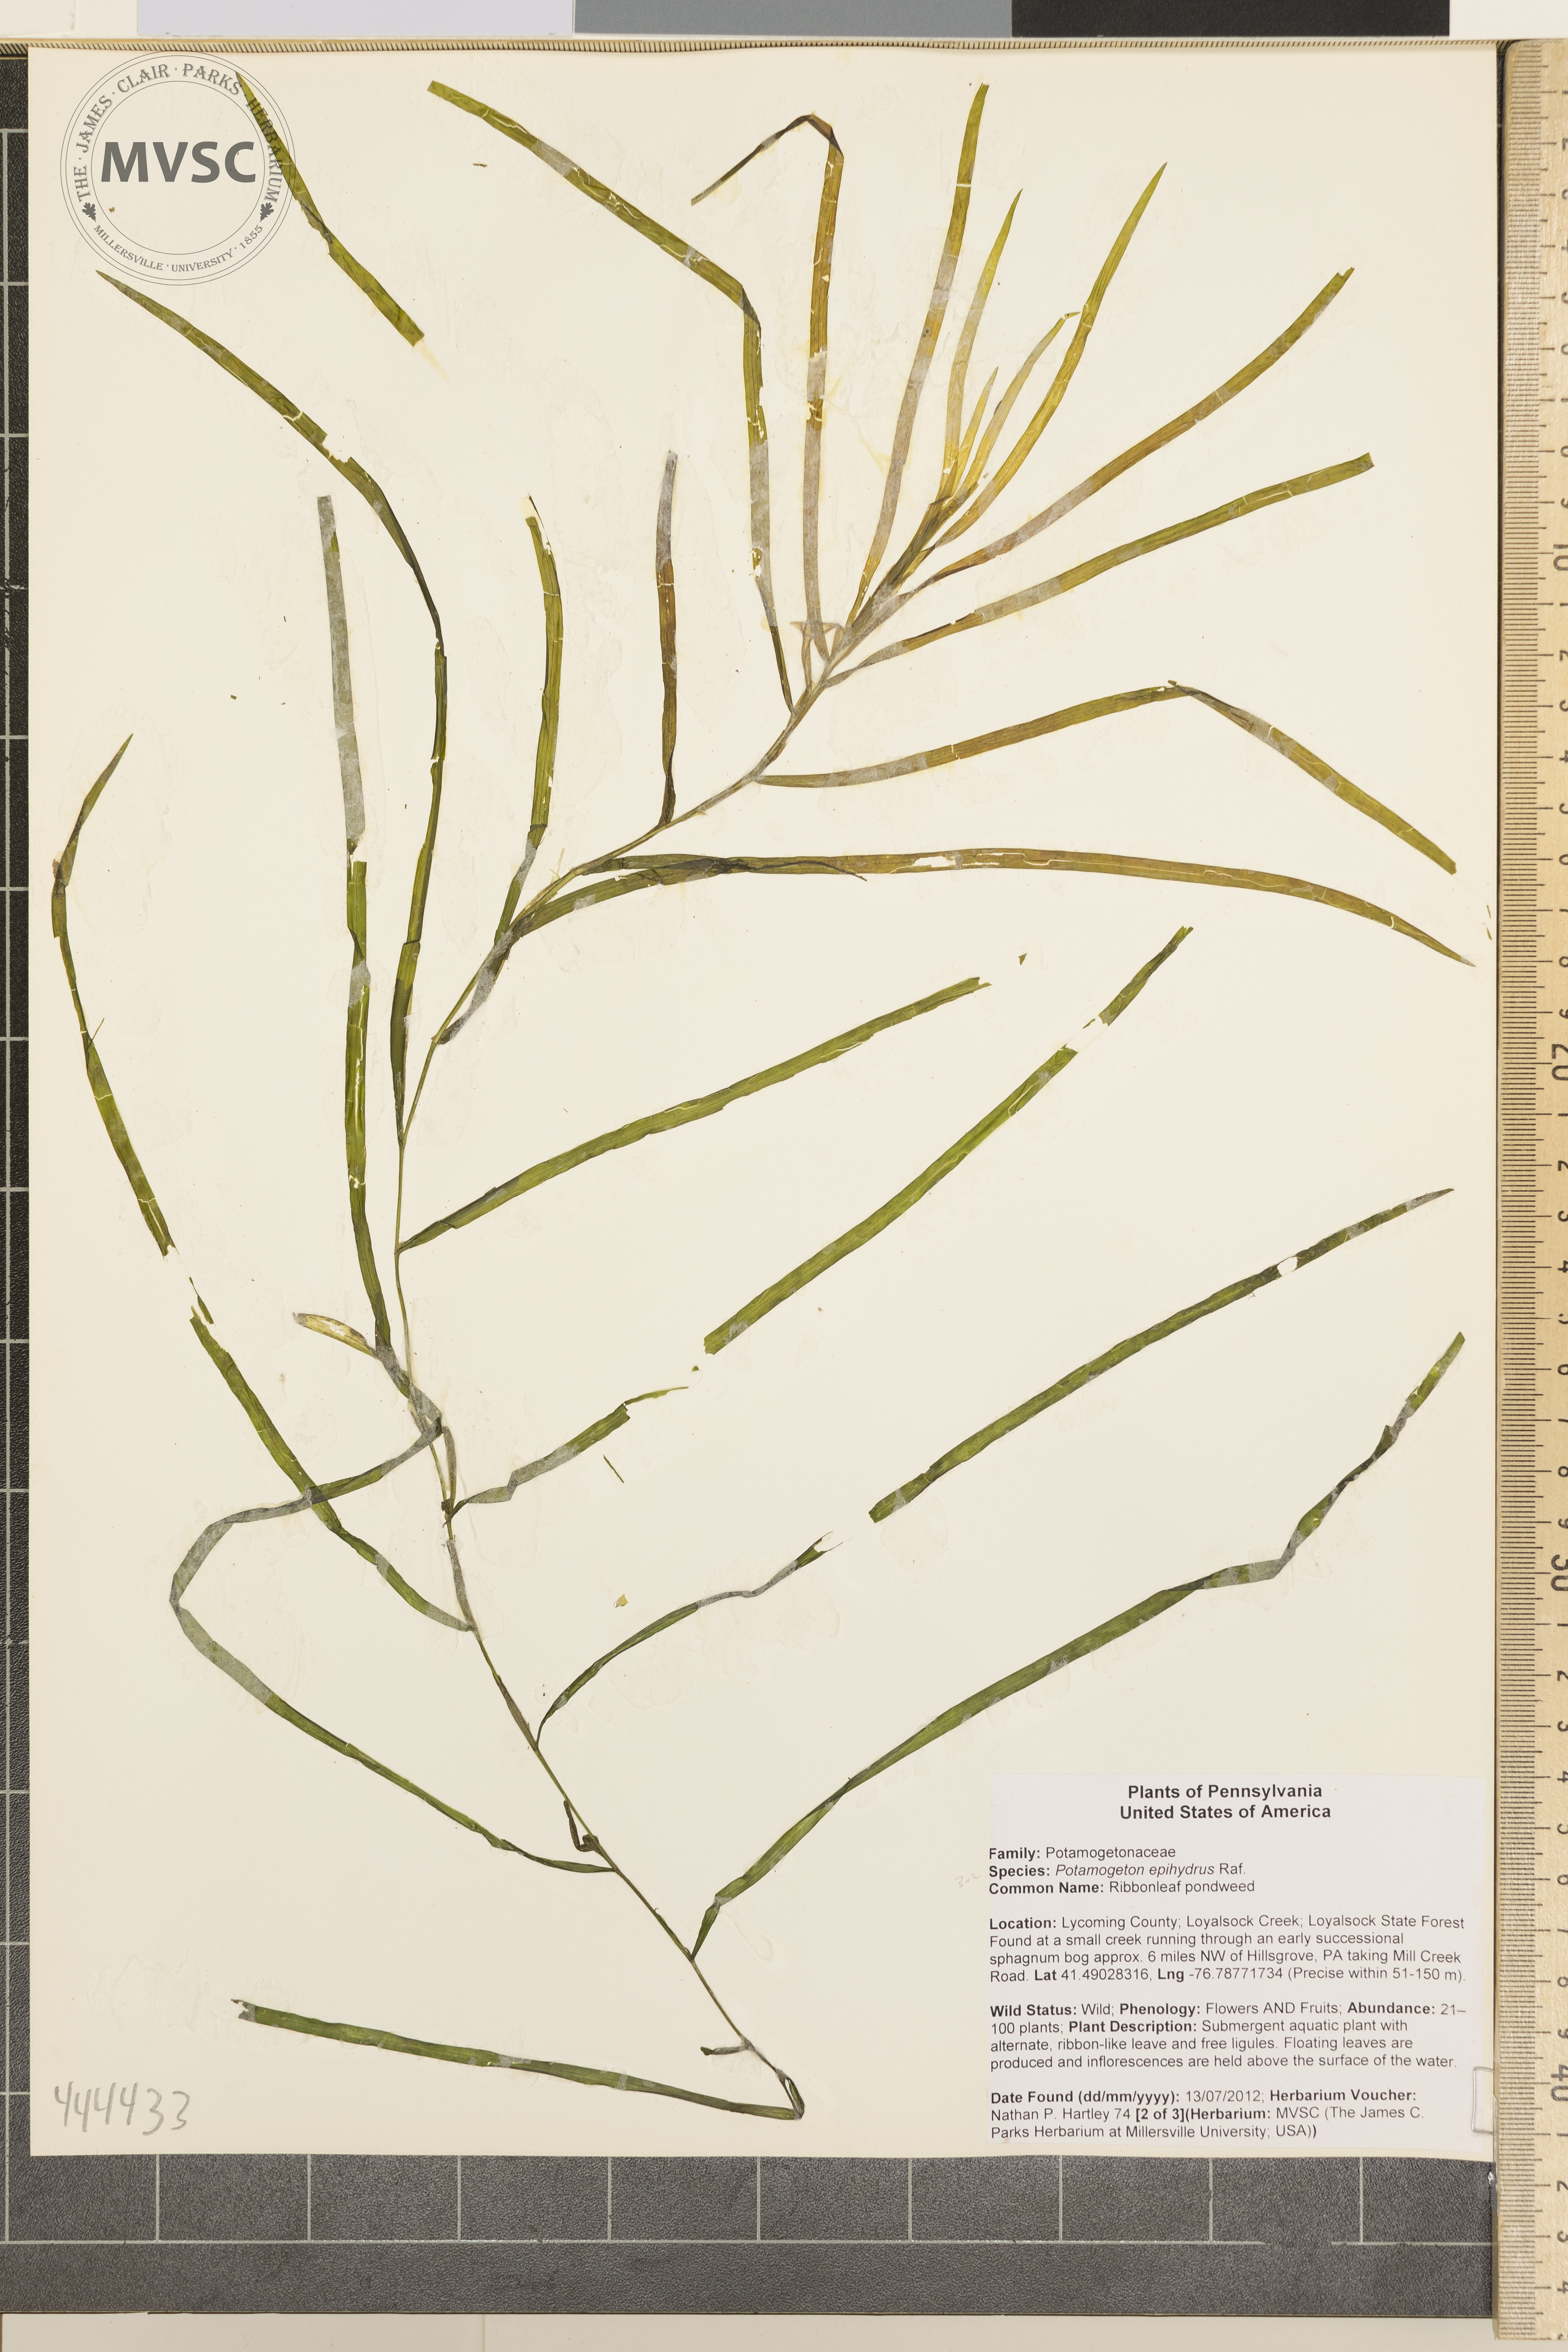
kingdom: Plantae
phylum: Tracheophyta
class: Liliopsida
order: Alismatales
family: Potamogetonaceae
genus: Potamogeton
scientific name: Potamogeton epihydrus
